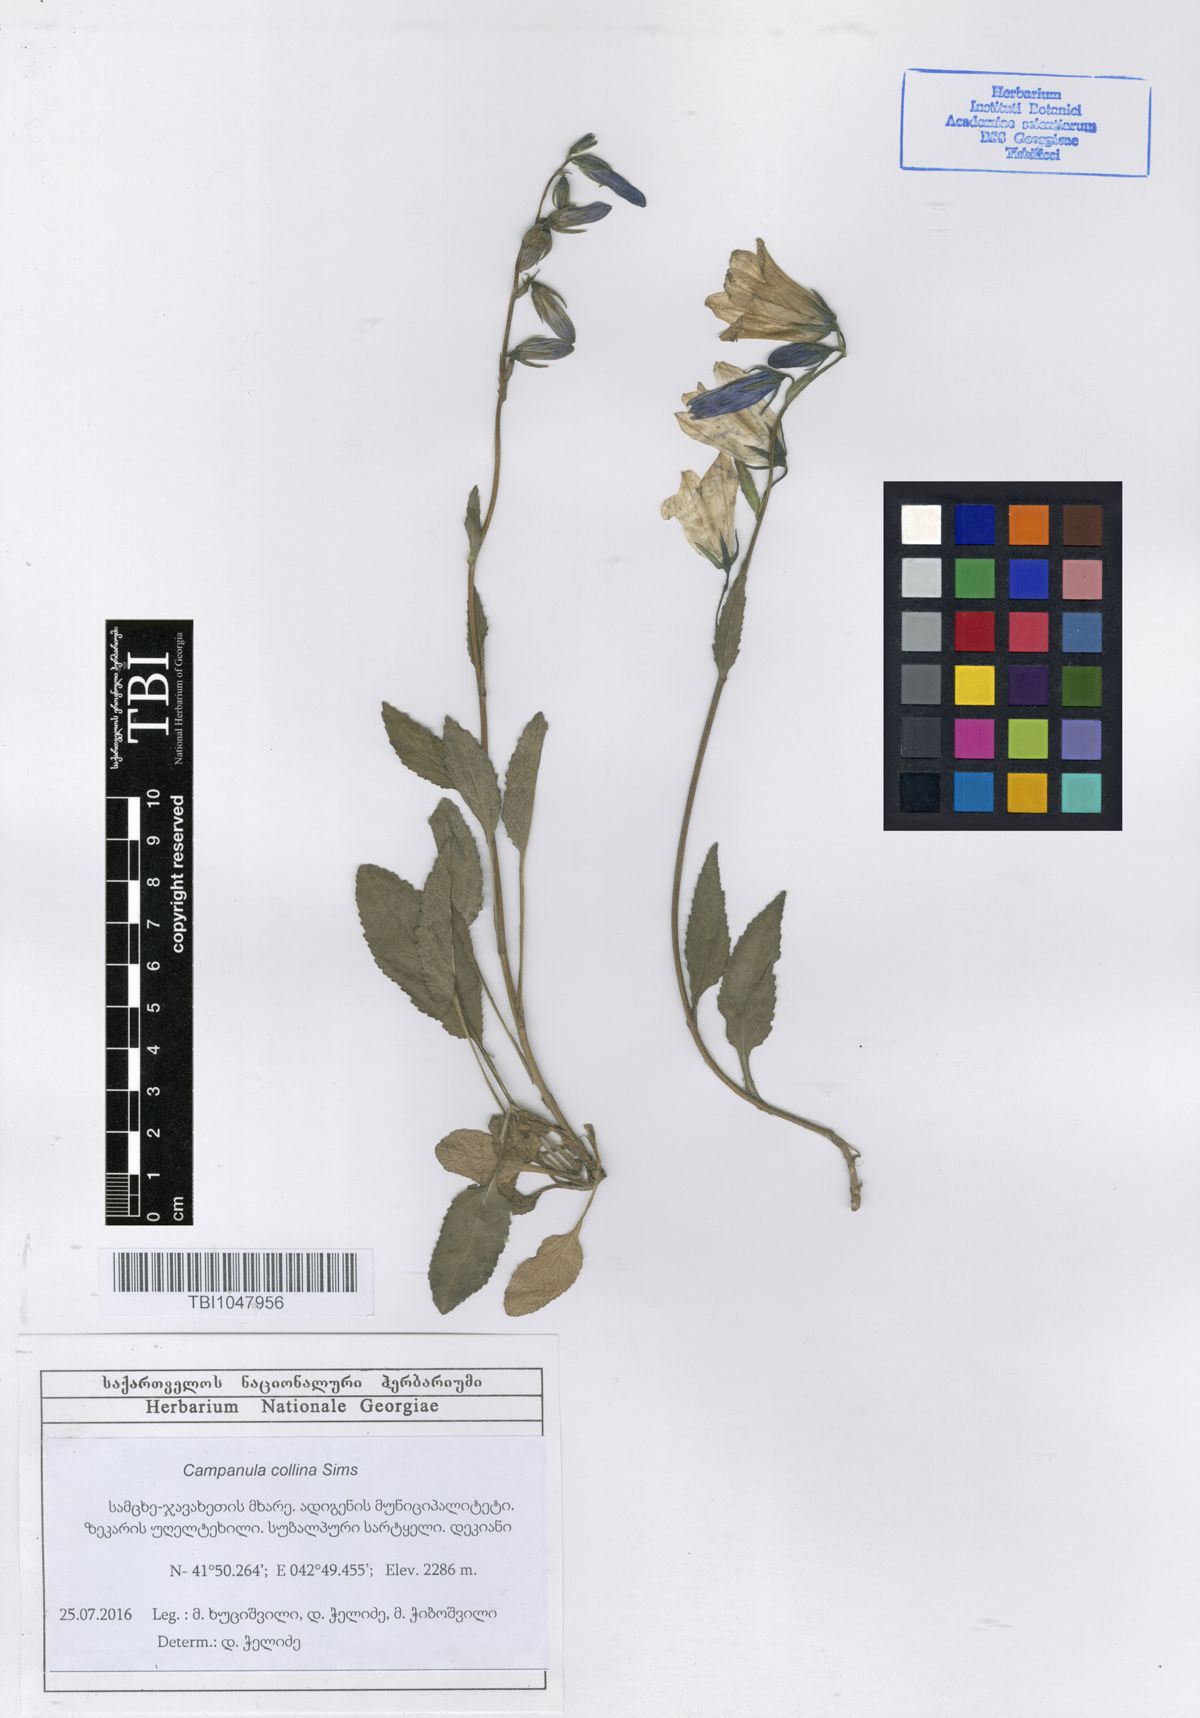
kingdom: Plantae
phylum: Tracheophyta
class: Magnoliopsida
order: Asterales
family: Campanulaceae
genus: Campanula
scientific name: Campanula collina
